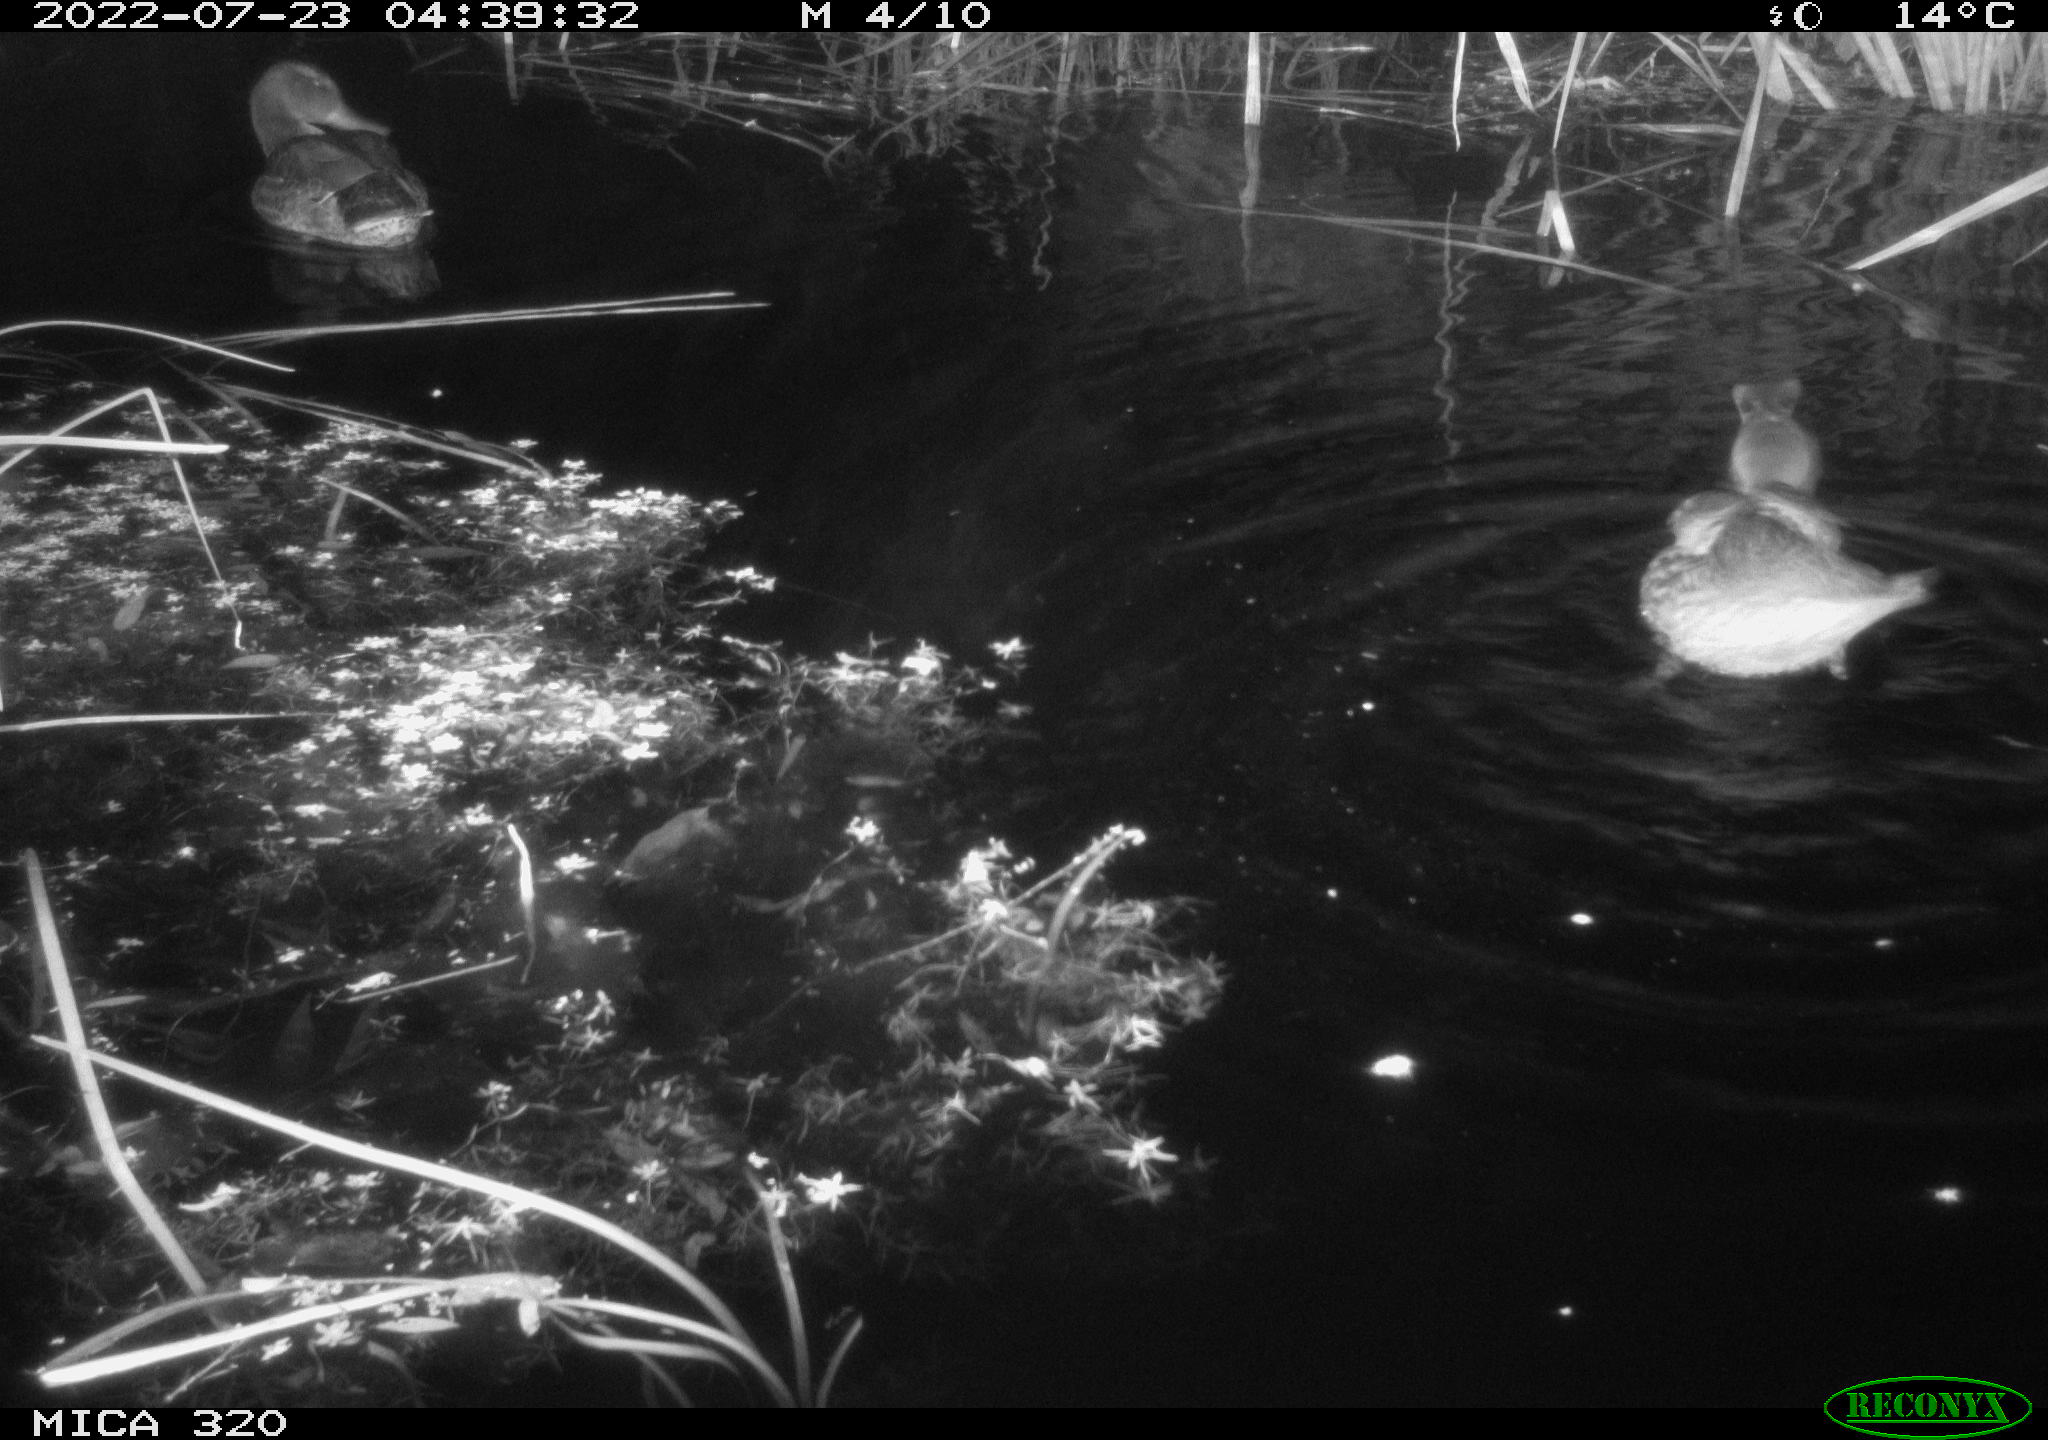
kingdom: Animalia
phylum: Chordata
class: Aves
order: Anseriformes
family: Anatidae
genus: Anas
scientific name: Anas platyrhynchos
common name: Mallard
